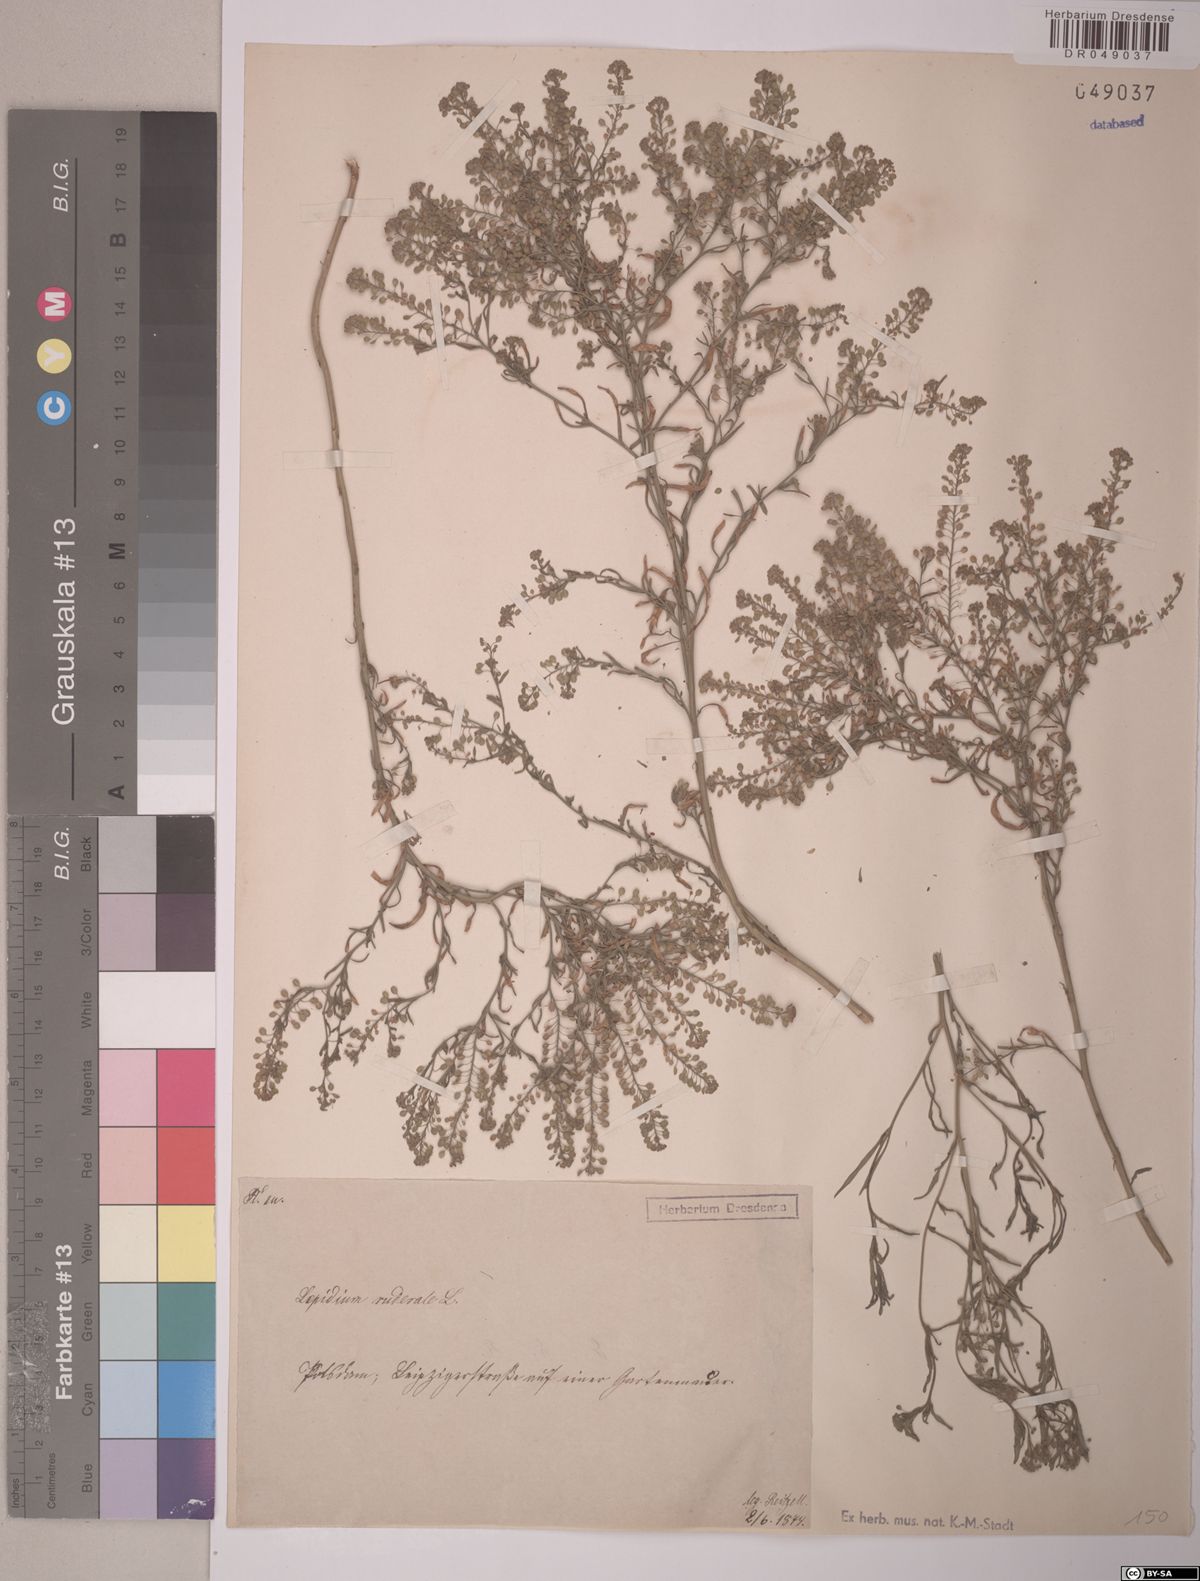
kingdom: Plantae
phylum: Tracheophyta
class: Magnoliopsida
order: Brassicales
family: Brassicaceae
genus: Lepidium
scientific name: Lepidium ruderale
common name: Narrow-leaved pepperwort
